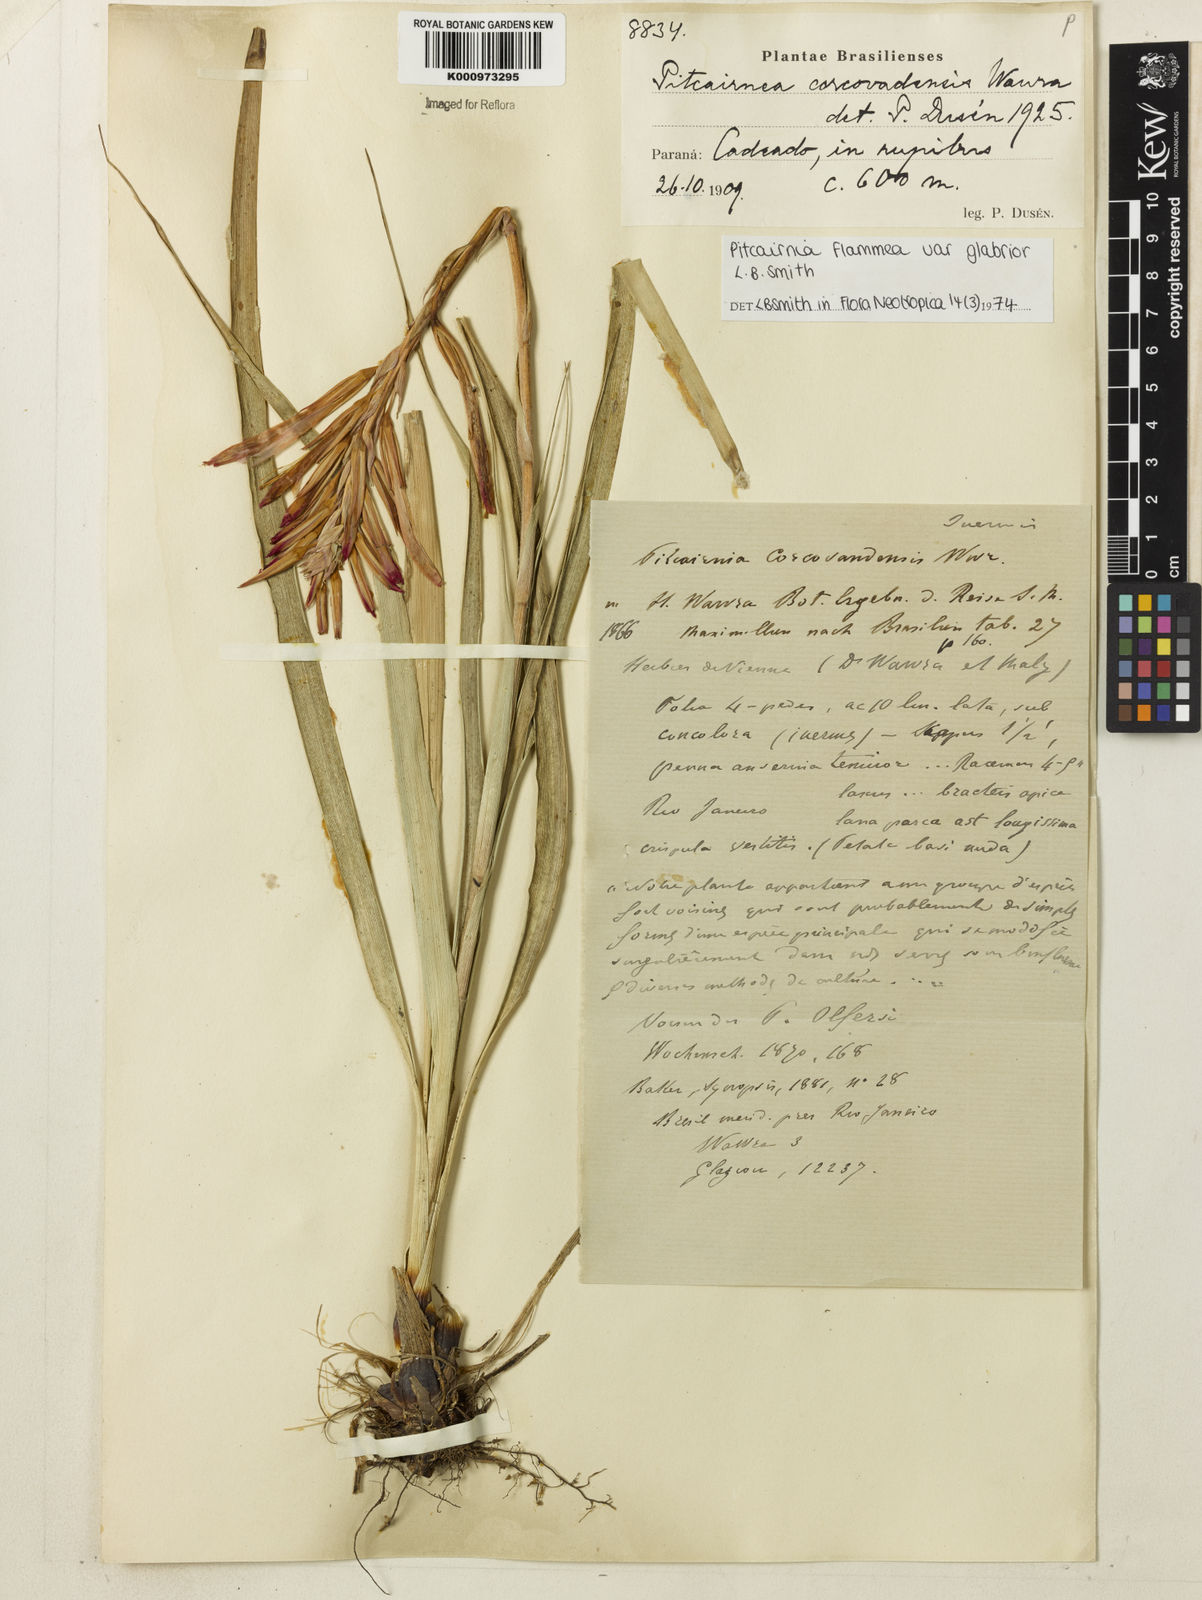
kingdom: Plantae
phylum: Tracheophyta
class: Liliopsida
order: Poales
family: Bromeliaceae
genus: Pitcairnia
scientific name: Pitcairnia flammea
